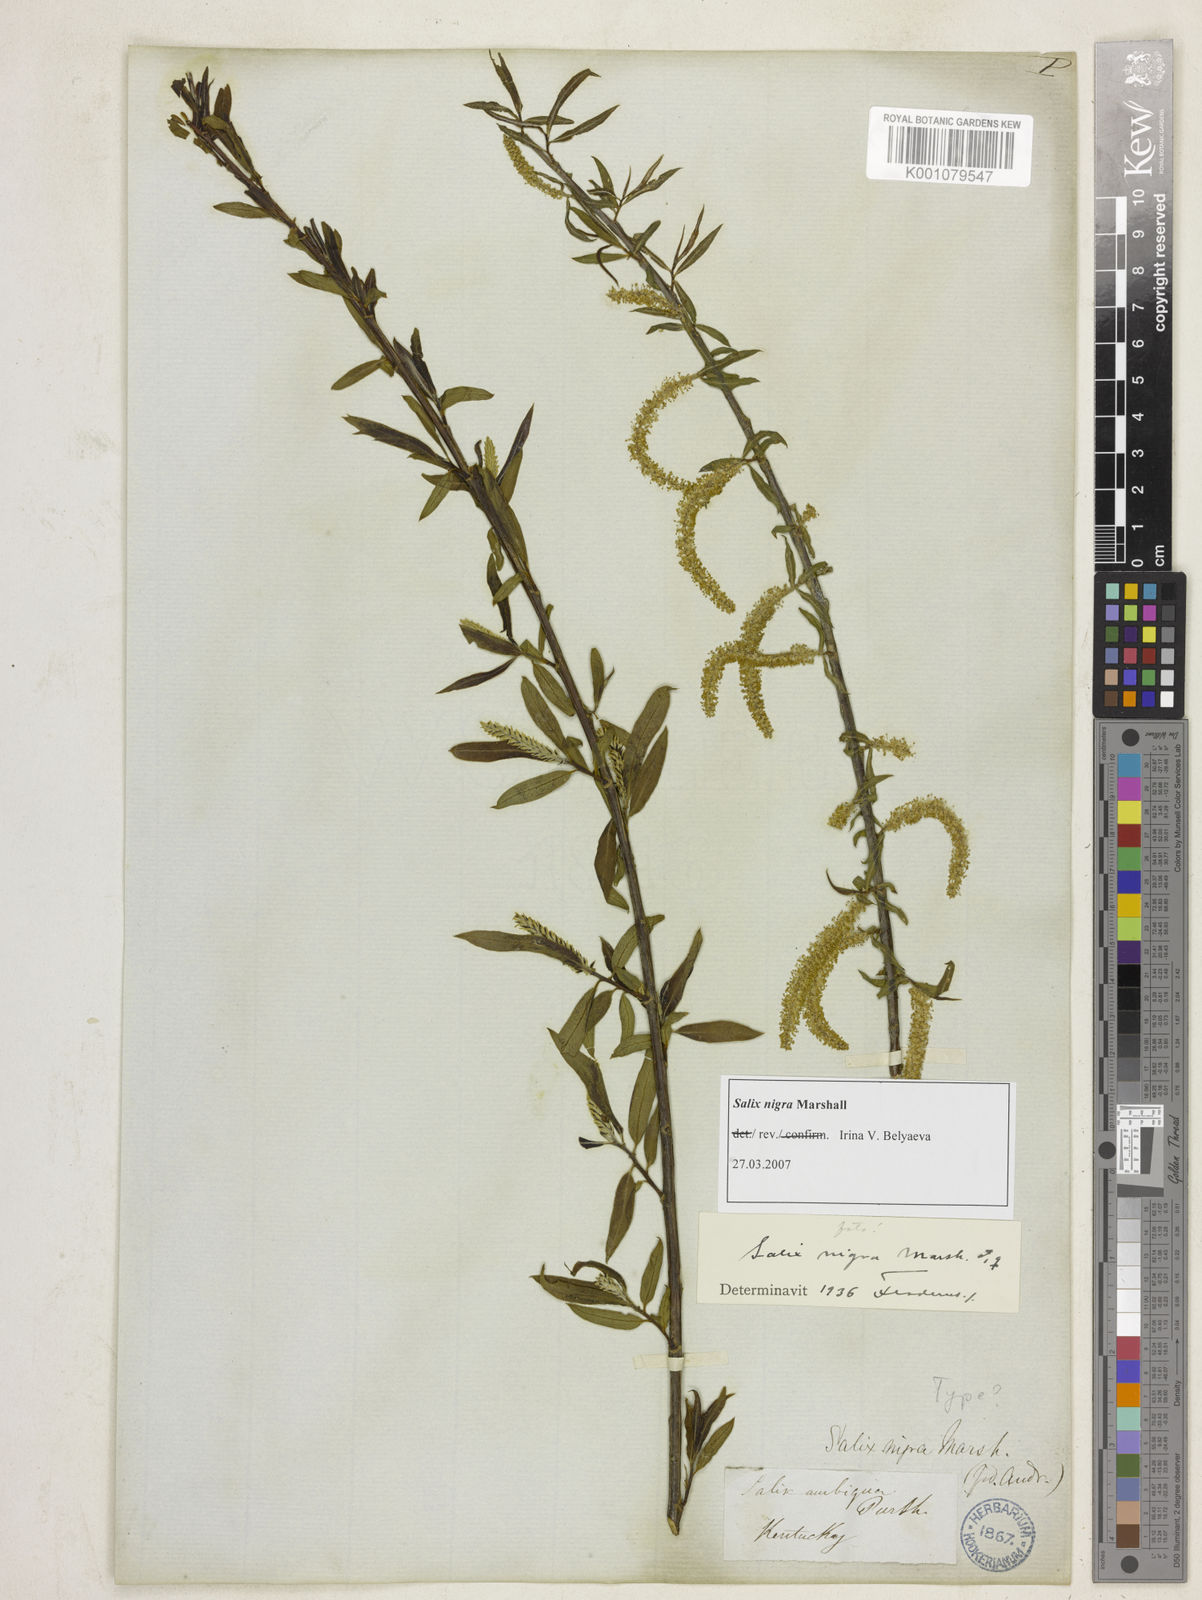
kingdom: Plantae
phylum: Tracheophyta
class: Magnoliopsida
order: Malpighiales
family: Salicaceae
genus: Salix
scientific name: Salix nigra
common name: Black willow
